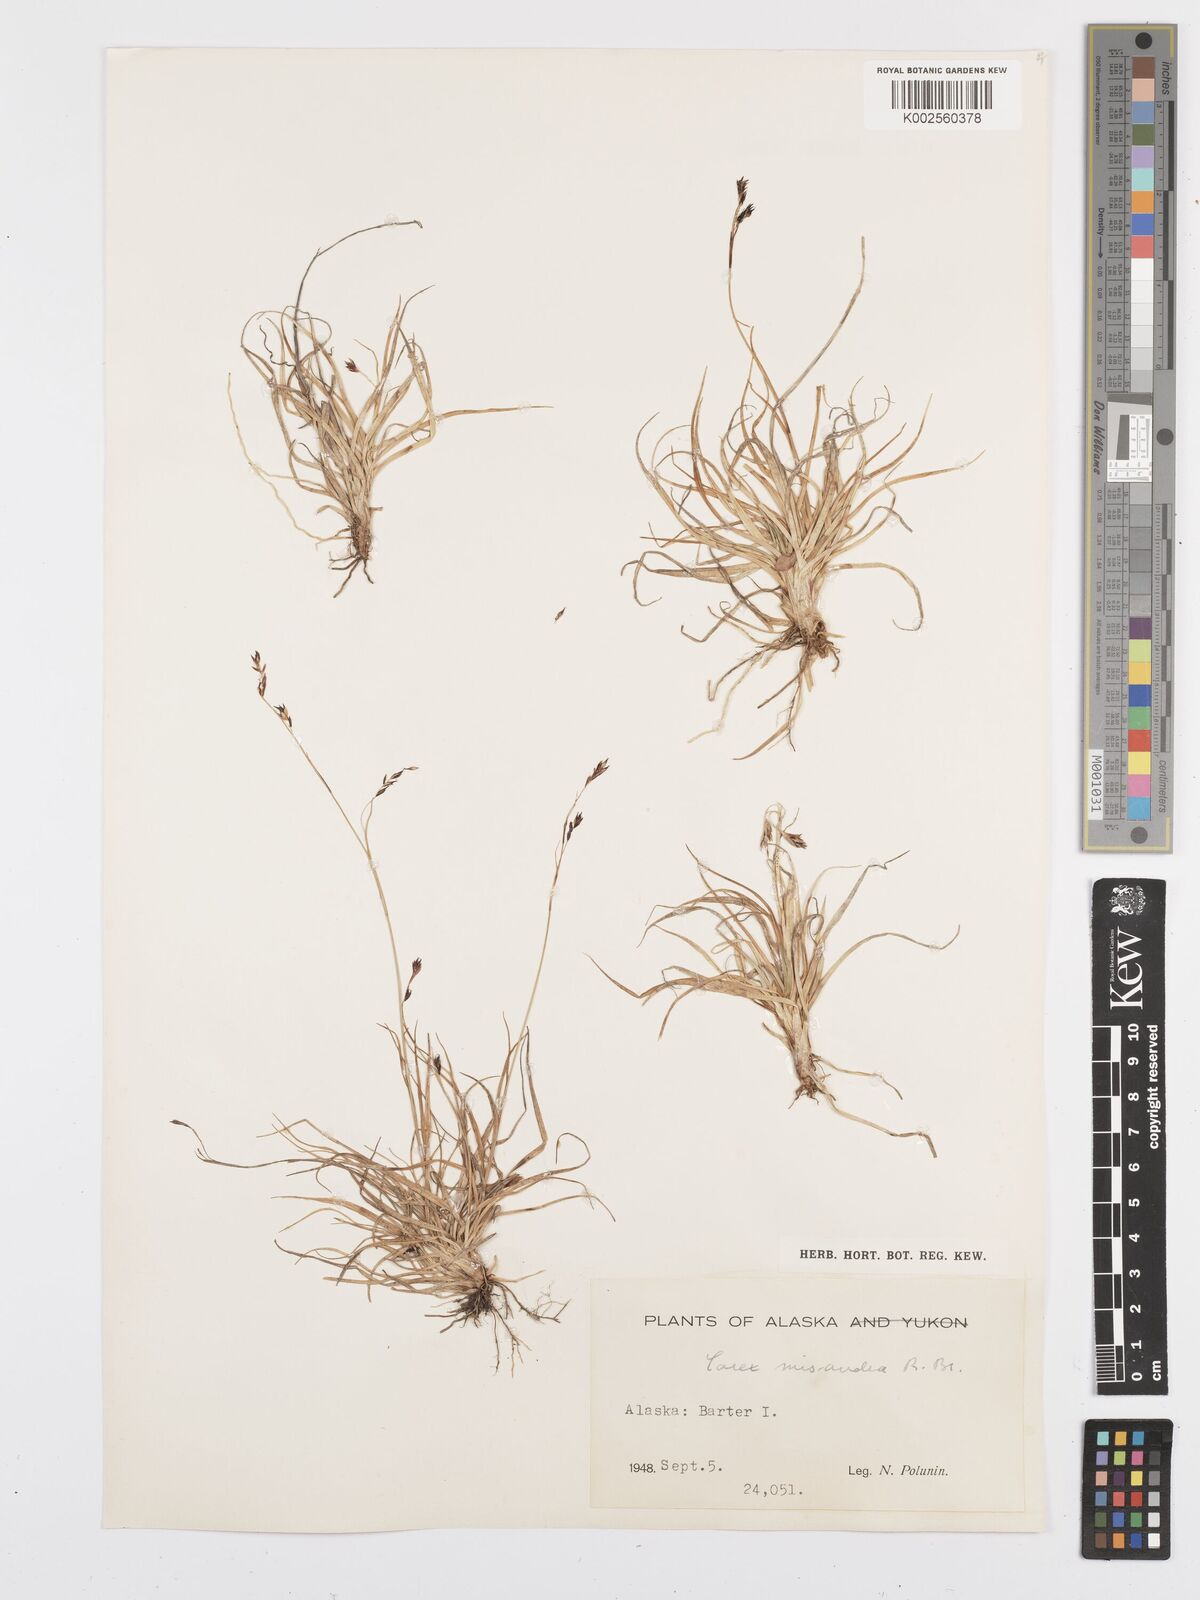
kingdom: Plantae
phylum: Tracheophyta
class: Liliopsida
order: Poales
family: Cyperaceae
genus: Carex
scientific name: Carex fuliginosa
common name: Few-flowered sedge
